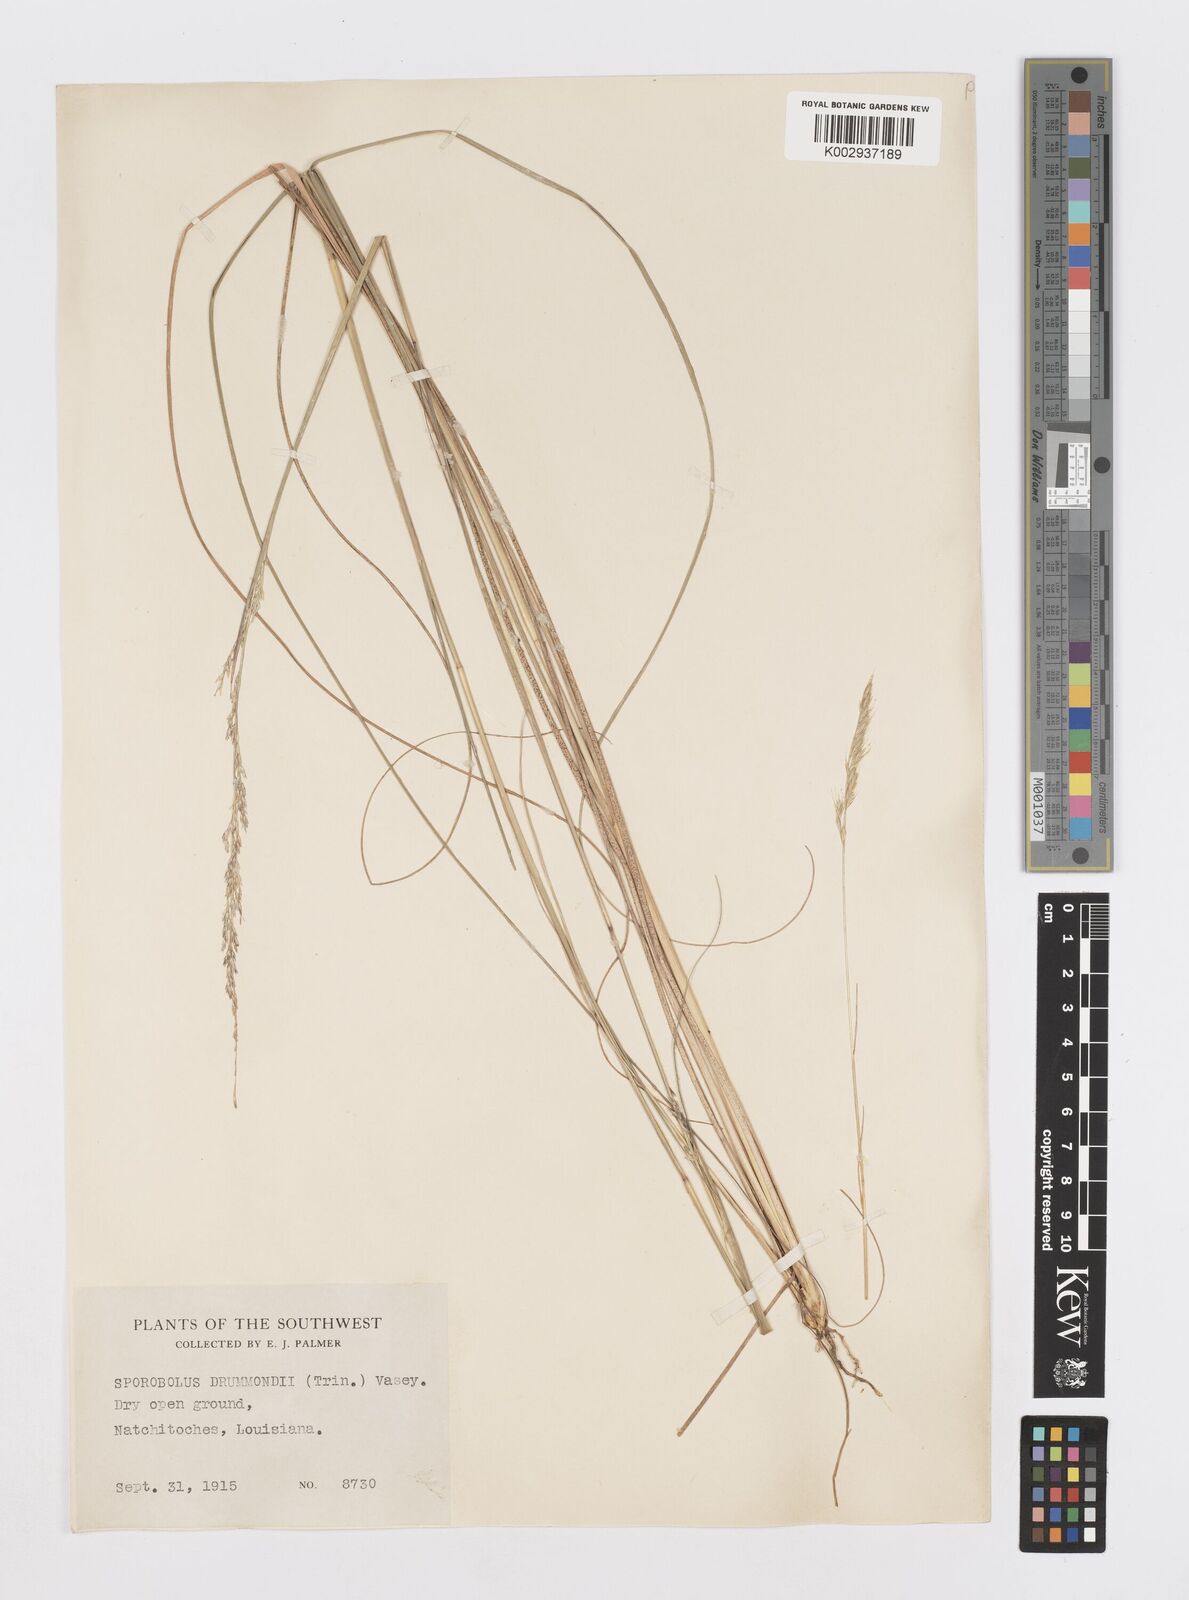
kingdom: Plantae
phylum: Tracheophyta
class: Liliopsida
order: Poales
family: Poaceae
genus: Sporobolus
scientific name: Sporobolus compositus
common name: Rough dropseed
